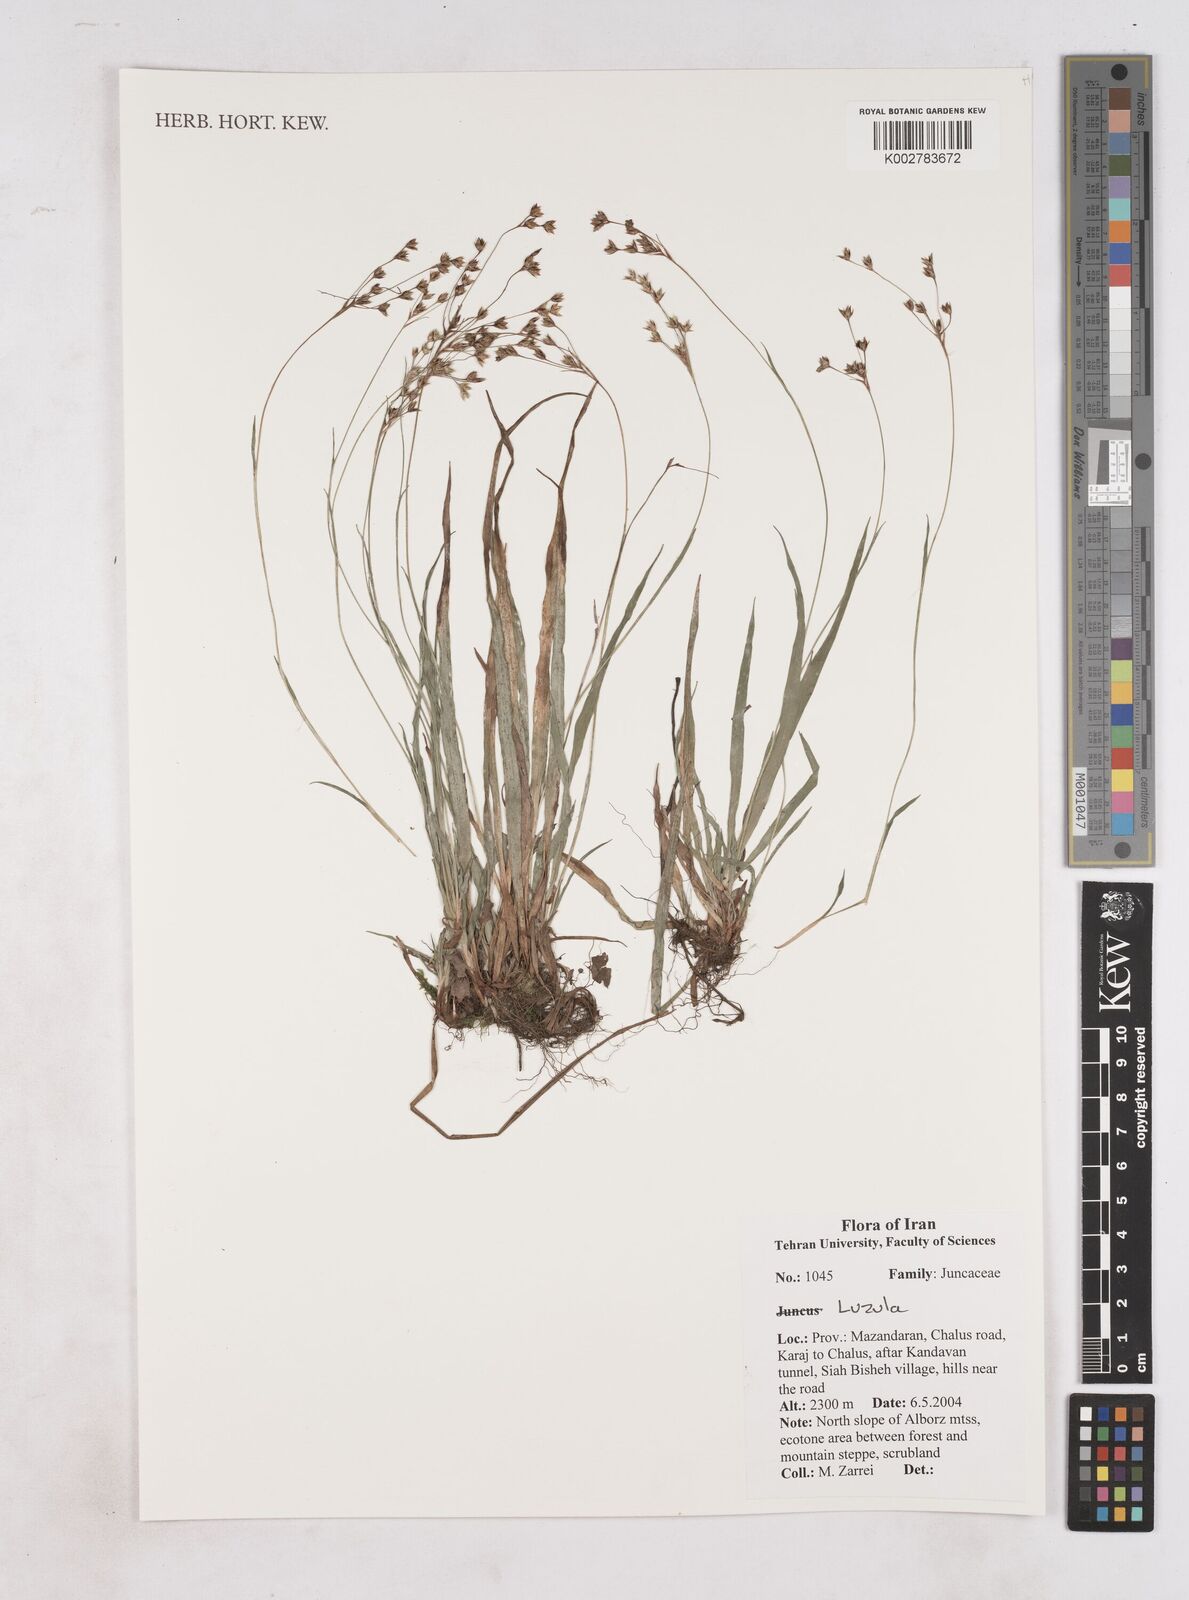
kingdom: Plantae
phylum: Tracheophyta
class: Liliopsida
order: Poales
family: Juncaceae
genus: Luzula
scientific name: Luzula
